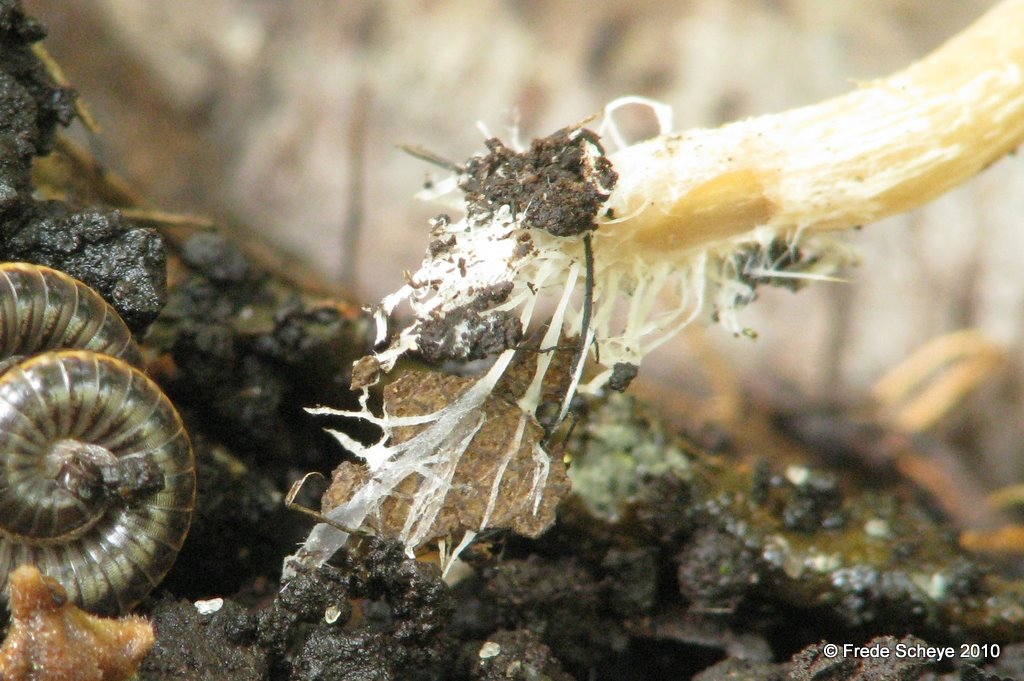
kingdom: Fungi
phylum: Basidiomycota
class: Agaricomycetes
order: Agaricales
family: Psathyrellaceae
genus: Psathyrella
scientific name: Psathyrella corrugis
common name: rødægget mørkhat
